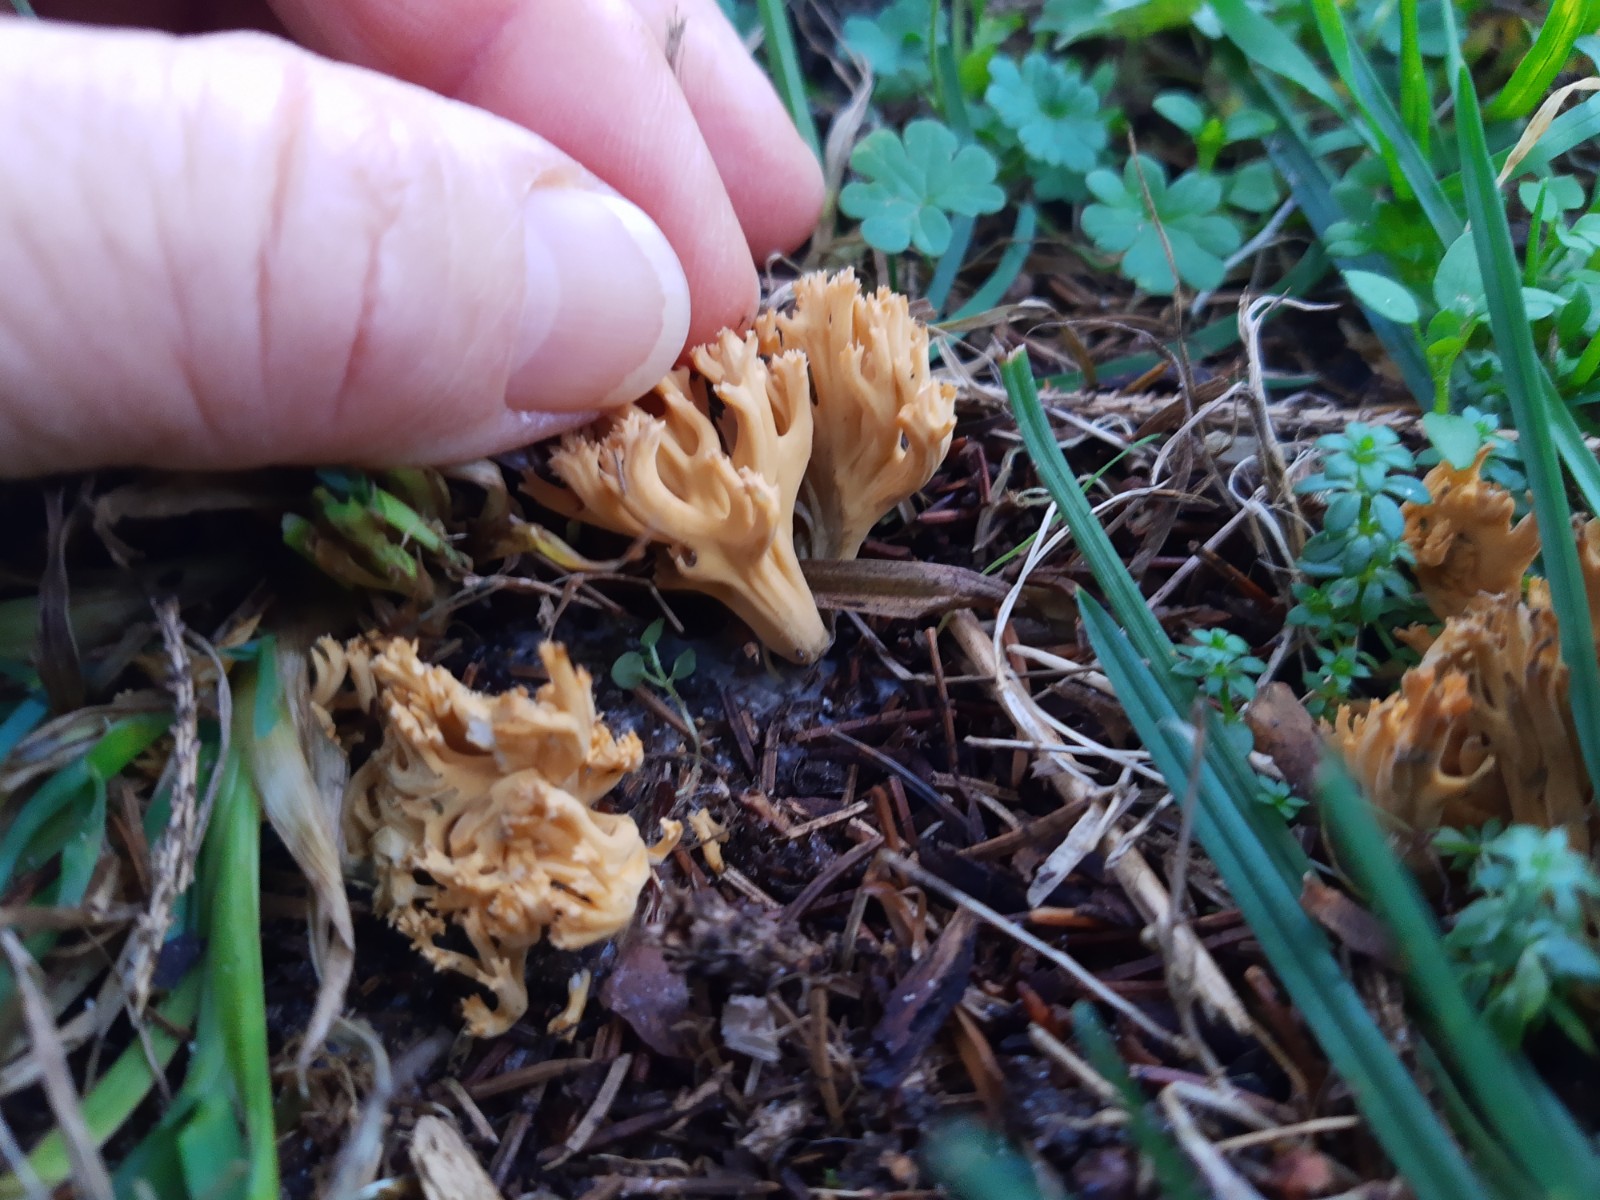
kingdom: Fungi
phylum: Basidiomycota
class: Agaricomycetes
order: Gomphales
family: Gomphaceae
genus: Phaeoclavulina
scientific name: Phaeoclavulina
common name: koralsvamp
